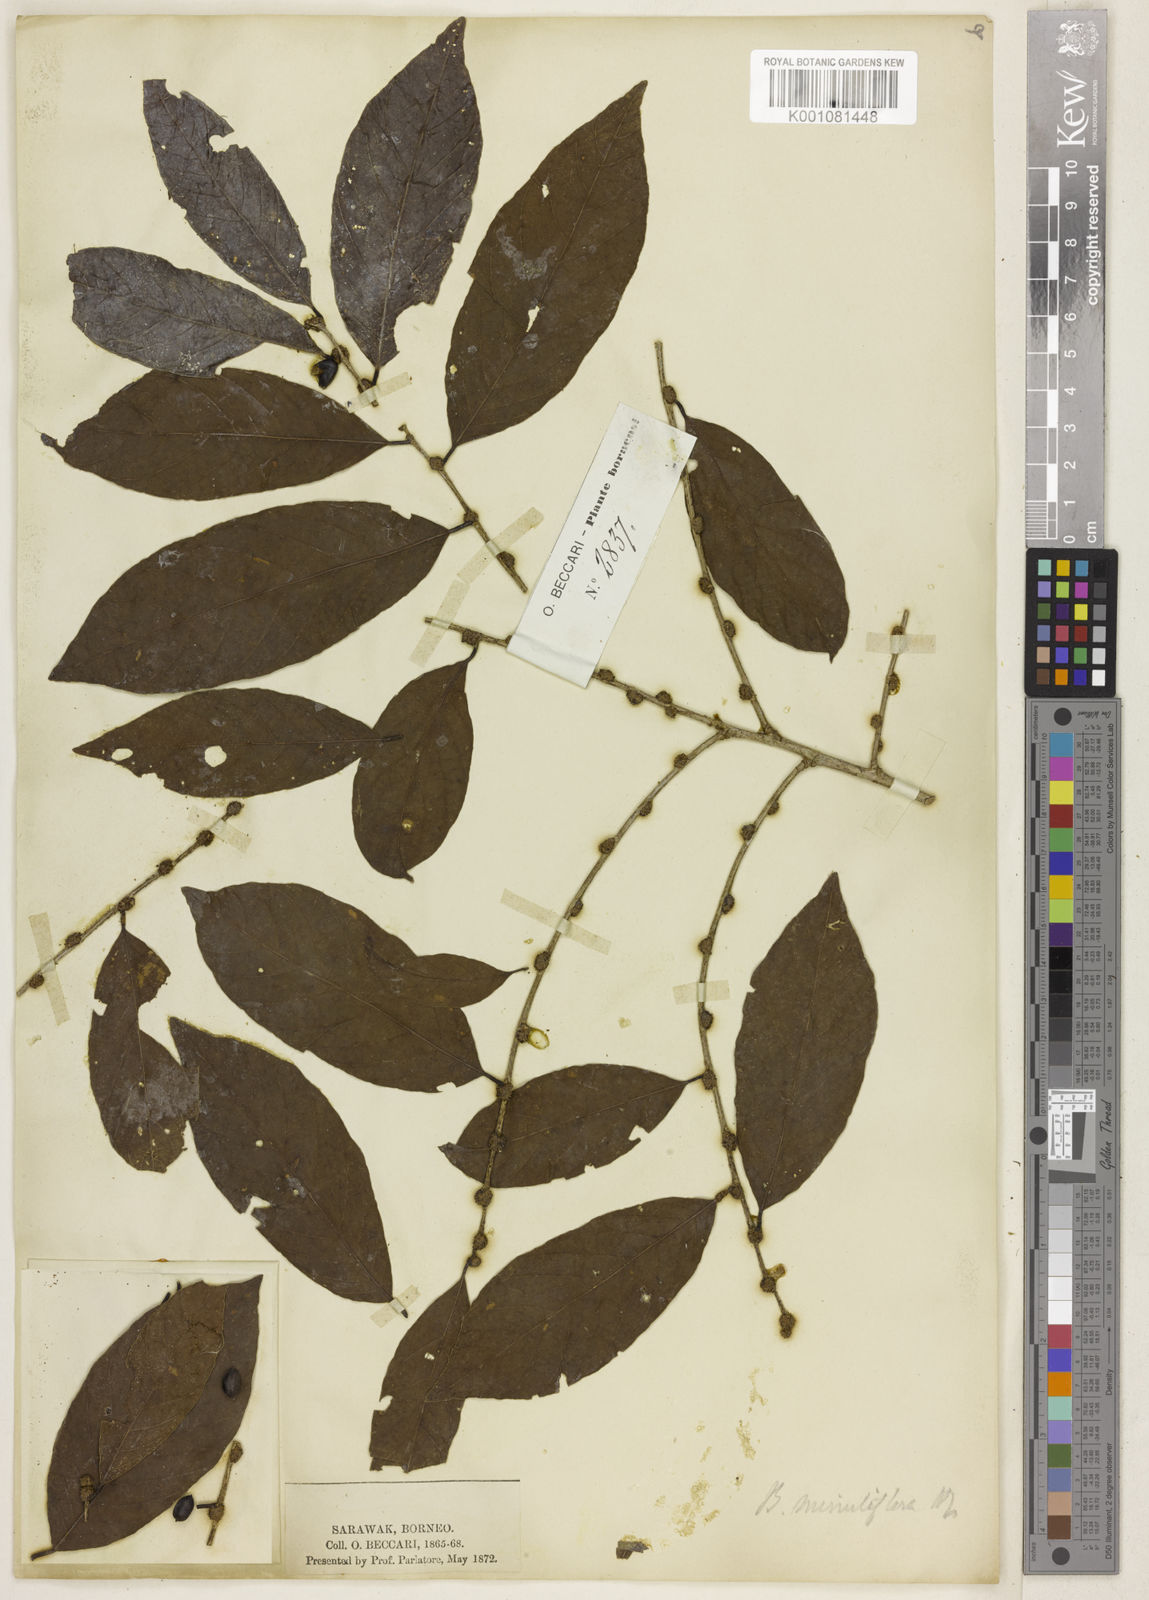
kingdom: Plantae
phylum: Tracheophyta
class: Magnoliopsida
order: Malpighiales
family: Phyllanthaceae
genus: Bridelia
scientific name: Bridelia insulana
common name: Grey-birch
